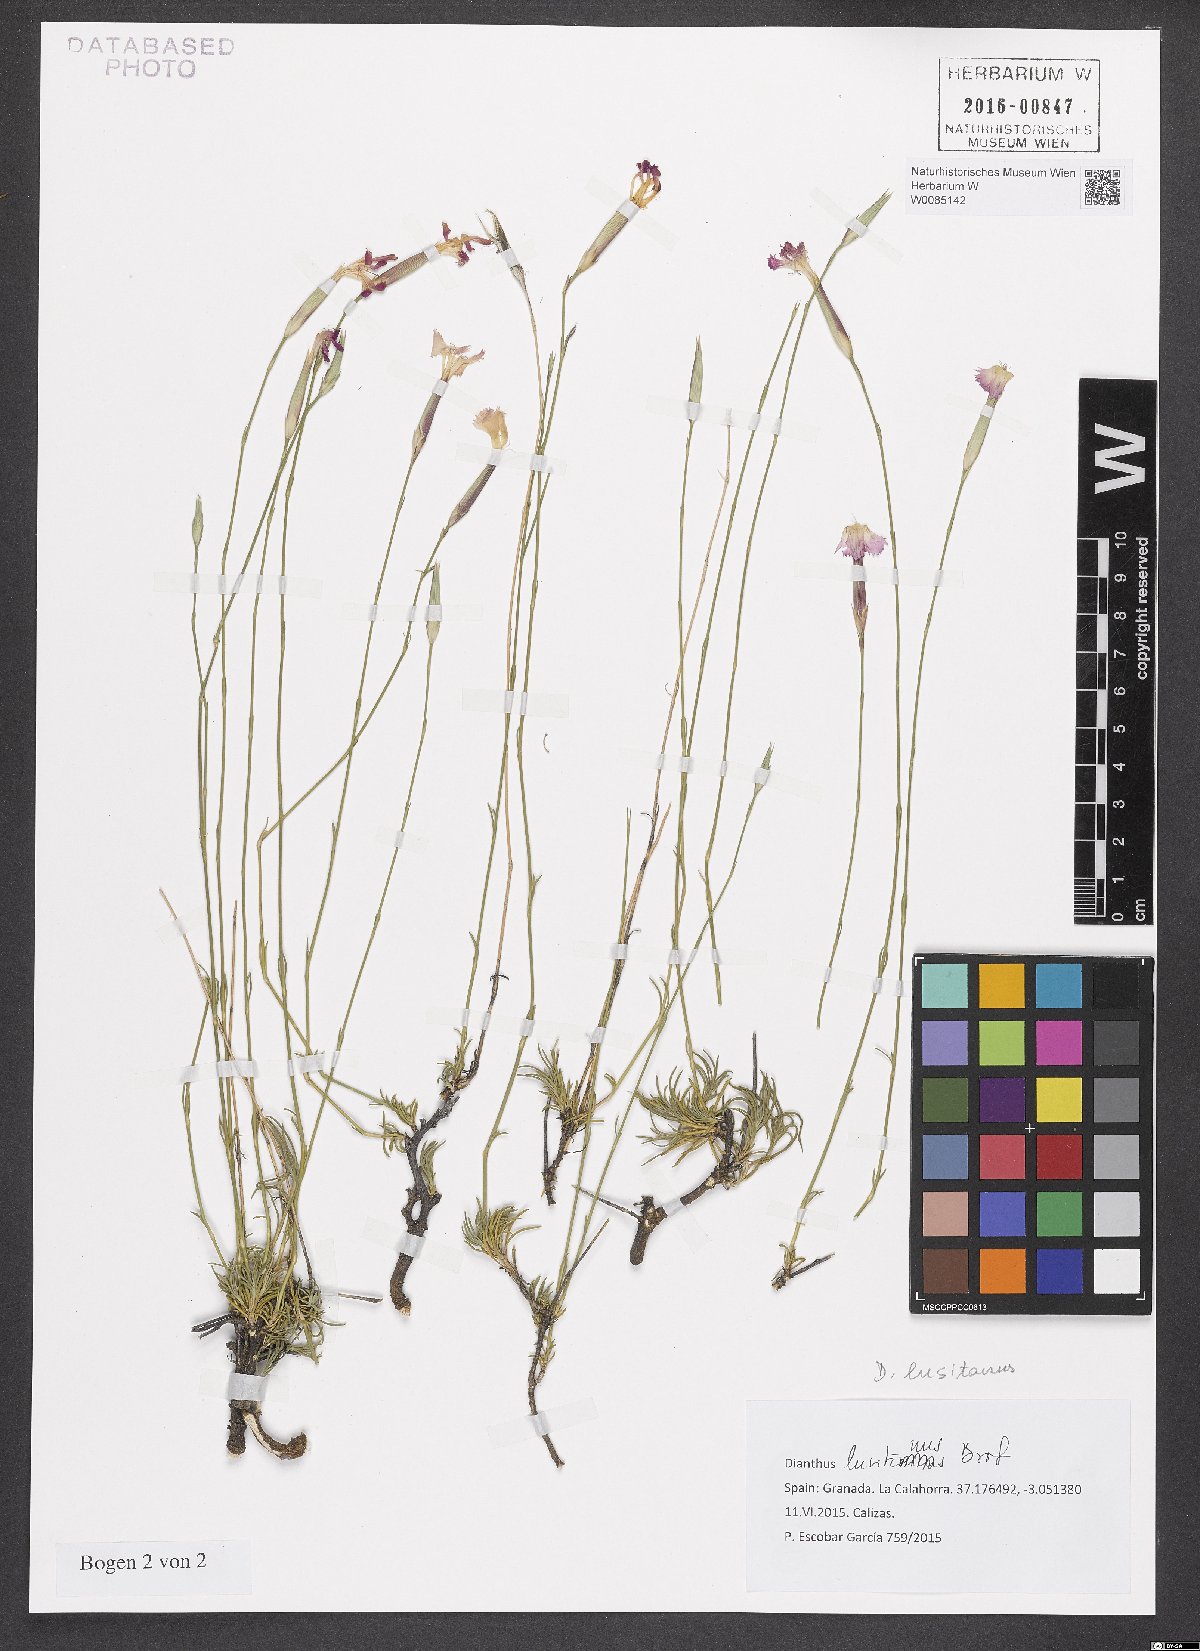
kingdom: Plantae
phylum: Tracheophyta
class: Magnoliopsida
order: Caryophyllales
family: Caryophyllaceae
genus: Dianthus
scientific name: Dianthus lusitanus
